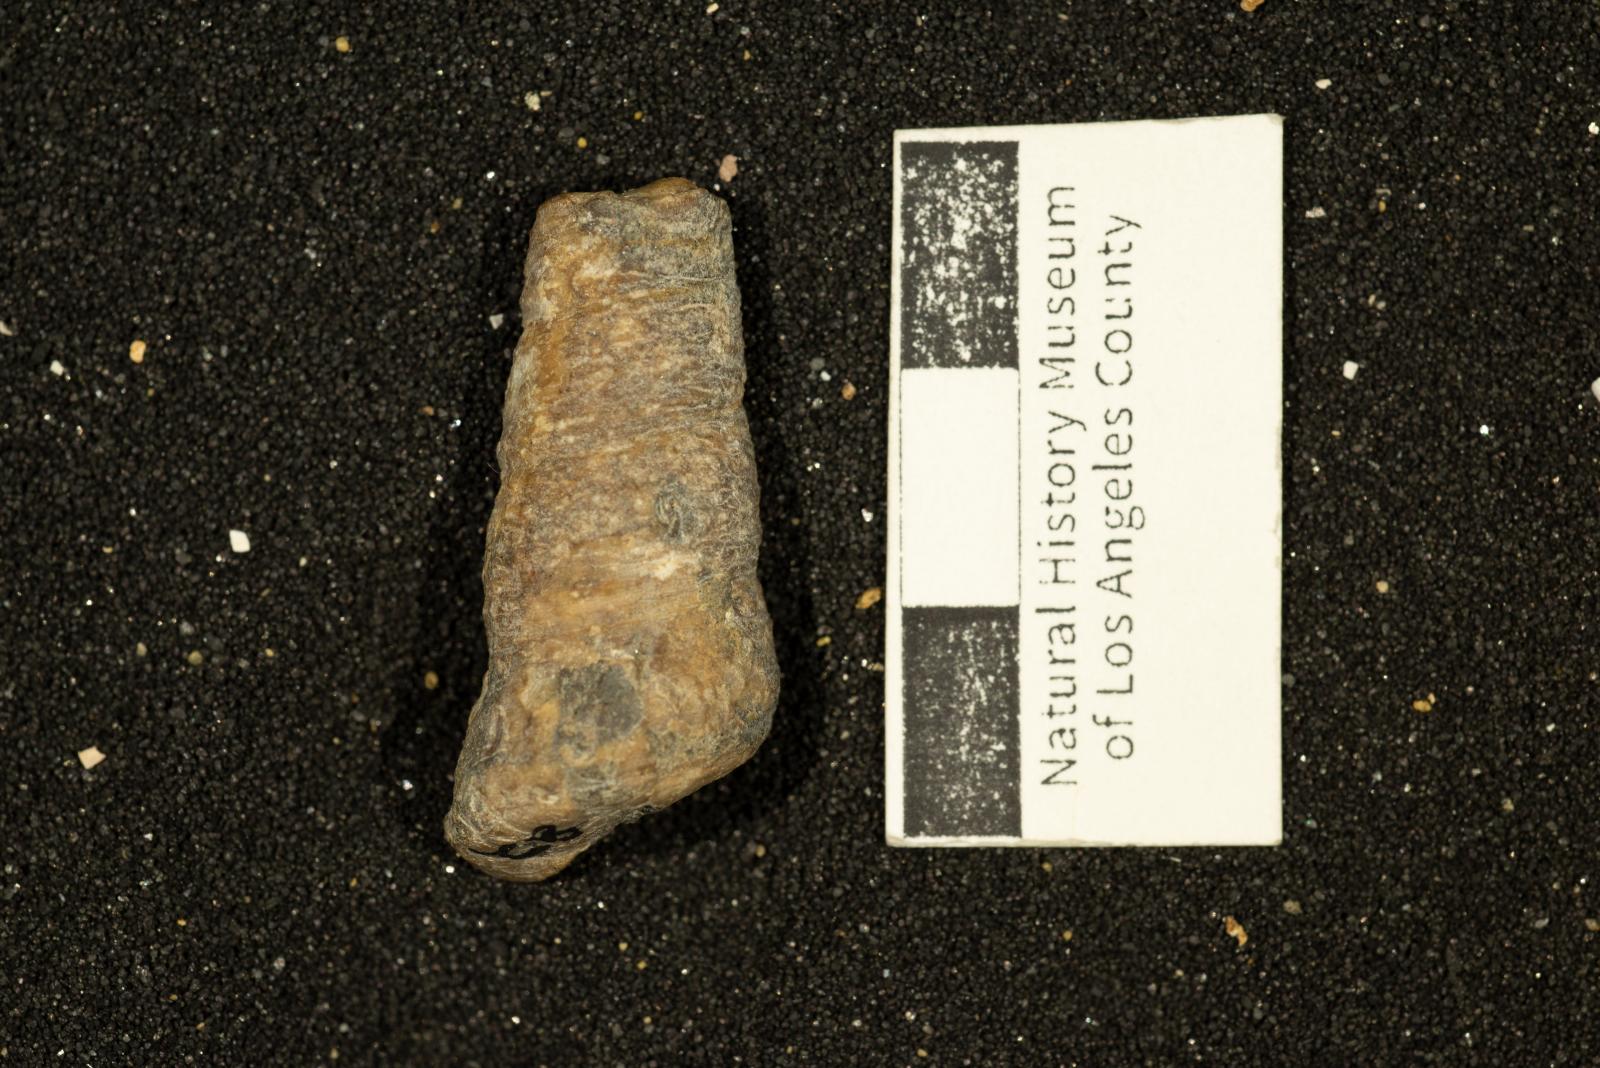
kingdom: Animalia
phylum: Mollusca
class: Gastropoda
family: Turritellidae
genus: Turritella
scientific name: Turritella hearni
